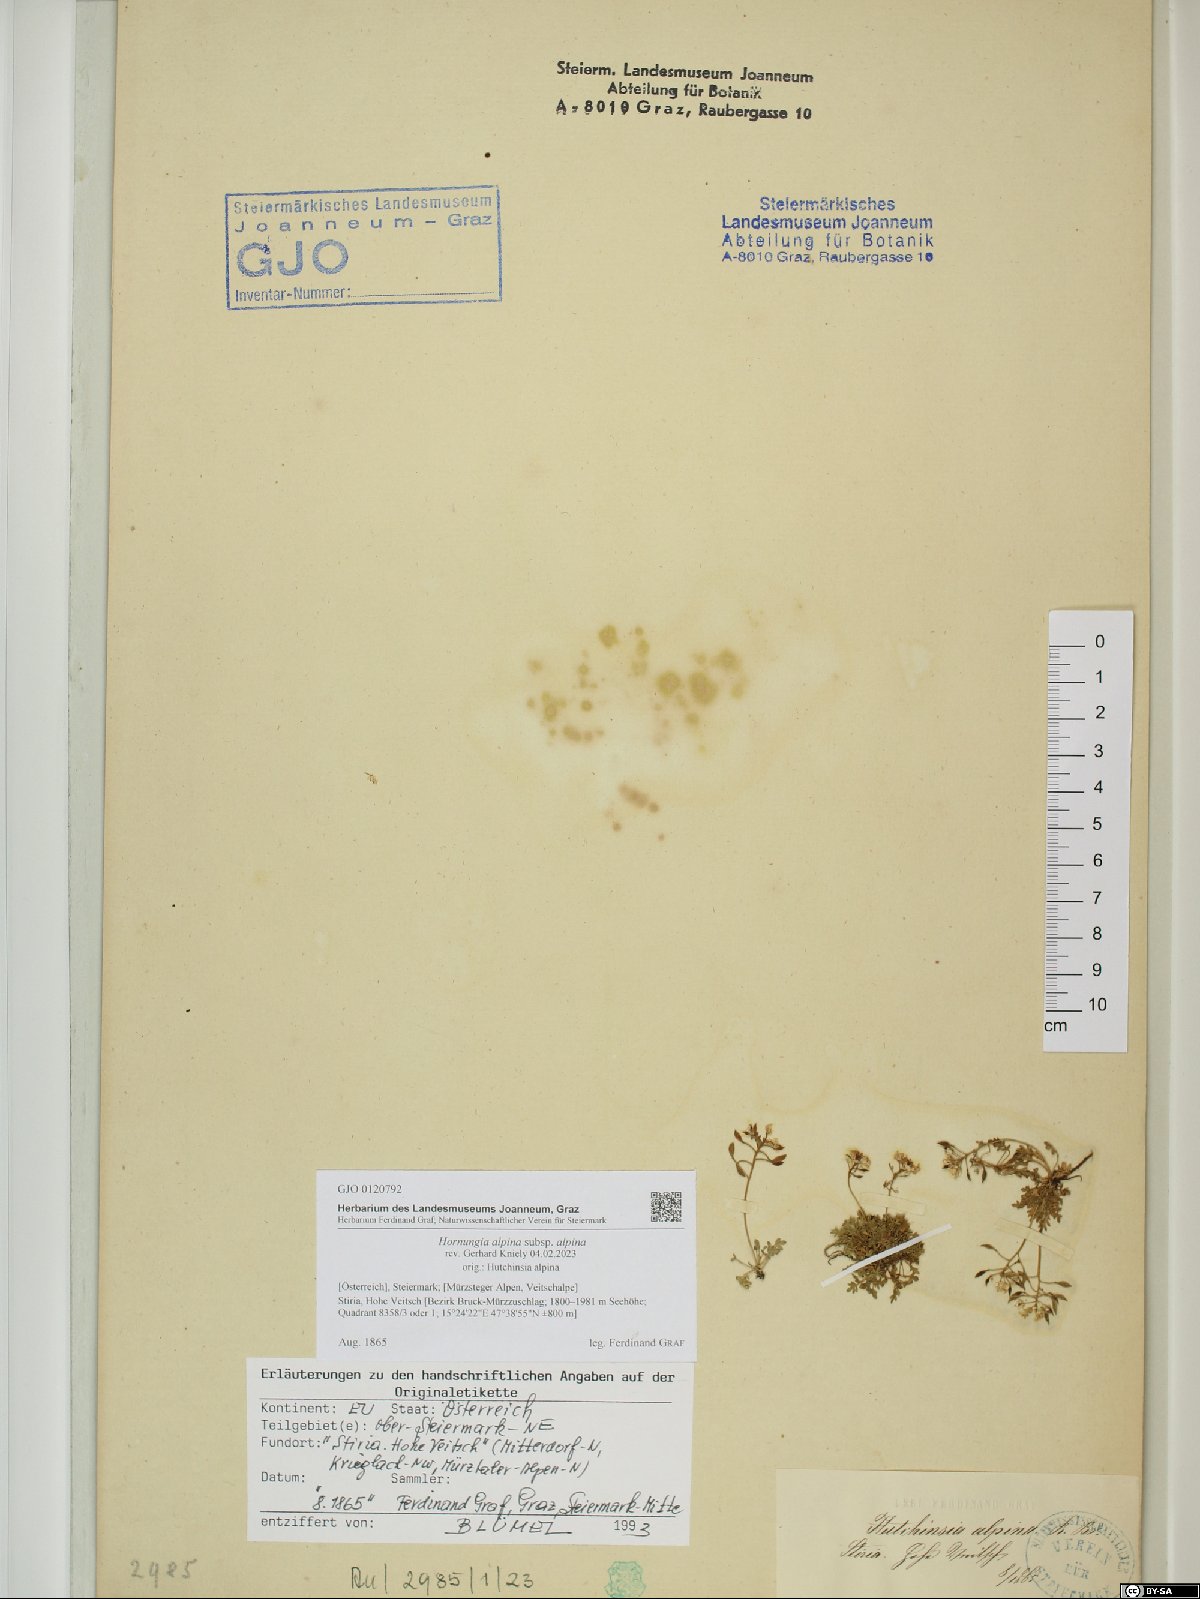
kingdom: Plantae
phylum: Tracheophyta
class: Magnoliopsida
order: Brassicales
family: Brassicaceae
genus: Hornungia
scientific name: Hornungia alpina
